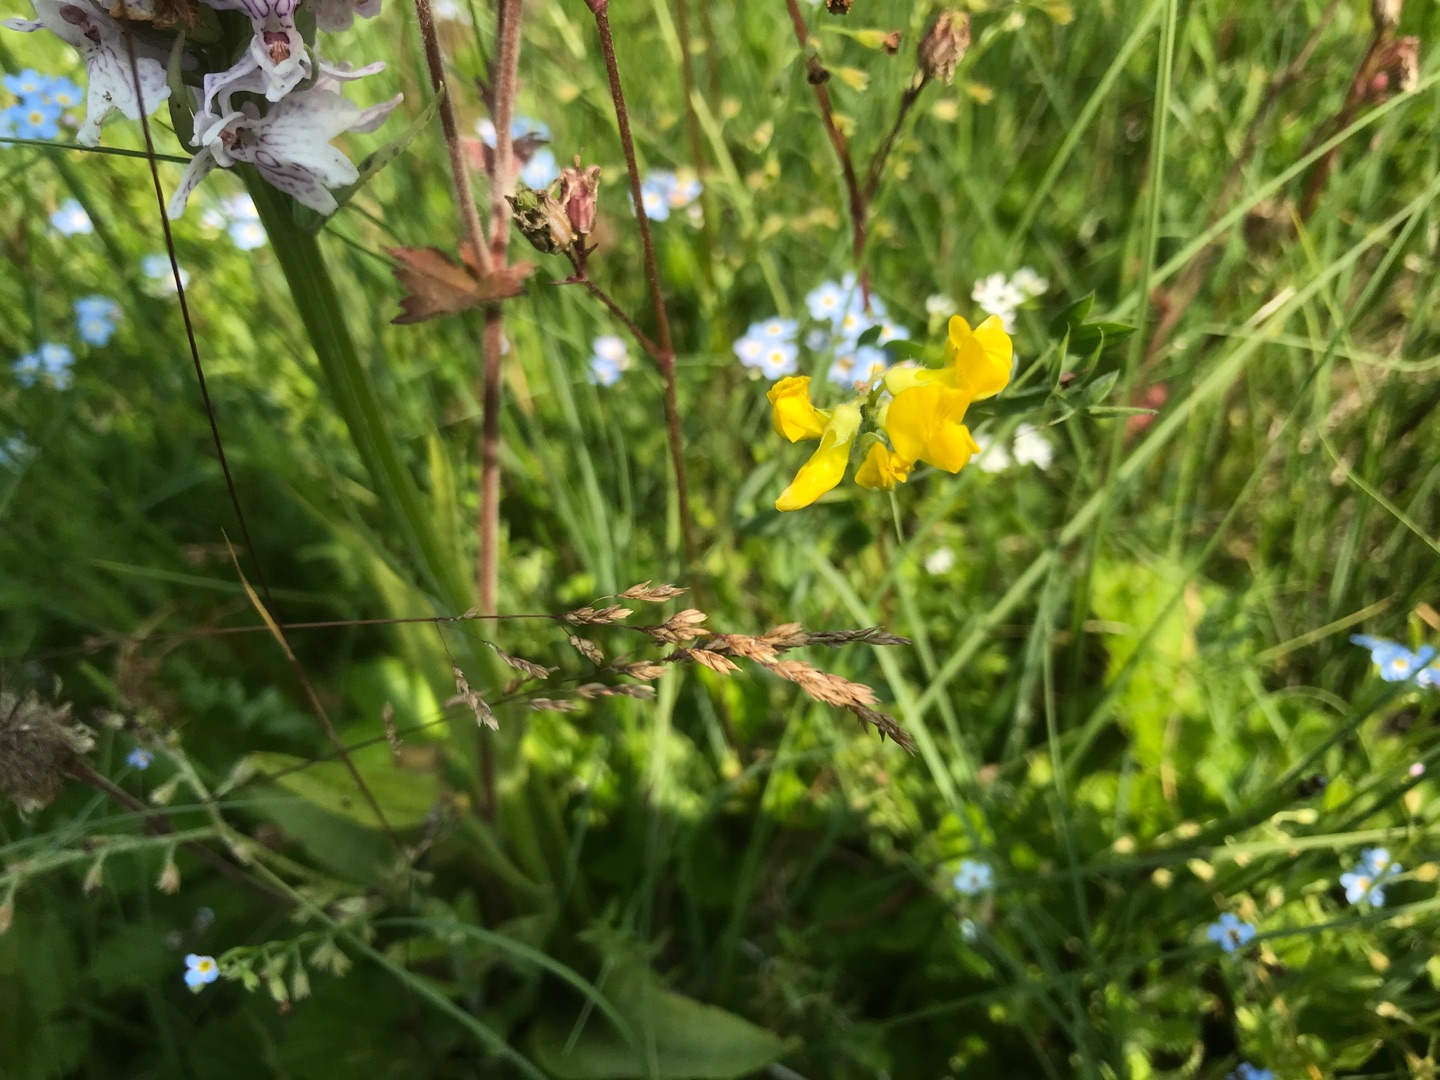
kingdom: Plantae
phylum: Tracheophyta
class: Magnoliopsida
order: Fabales
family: Fabaceae
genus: Lathyrus
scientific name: Lathyrus pratensis
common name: Gul fladbælg
